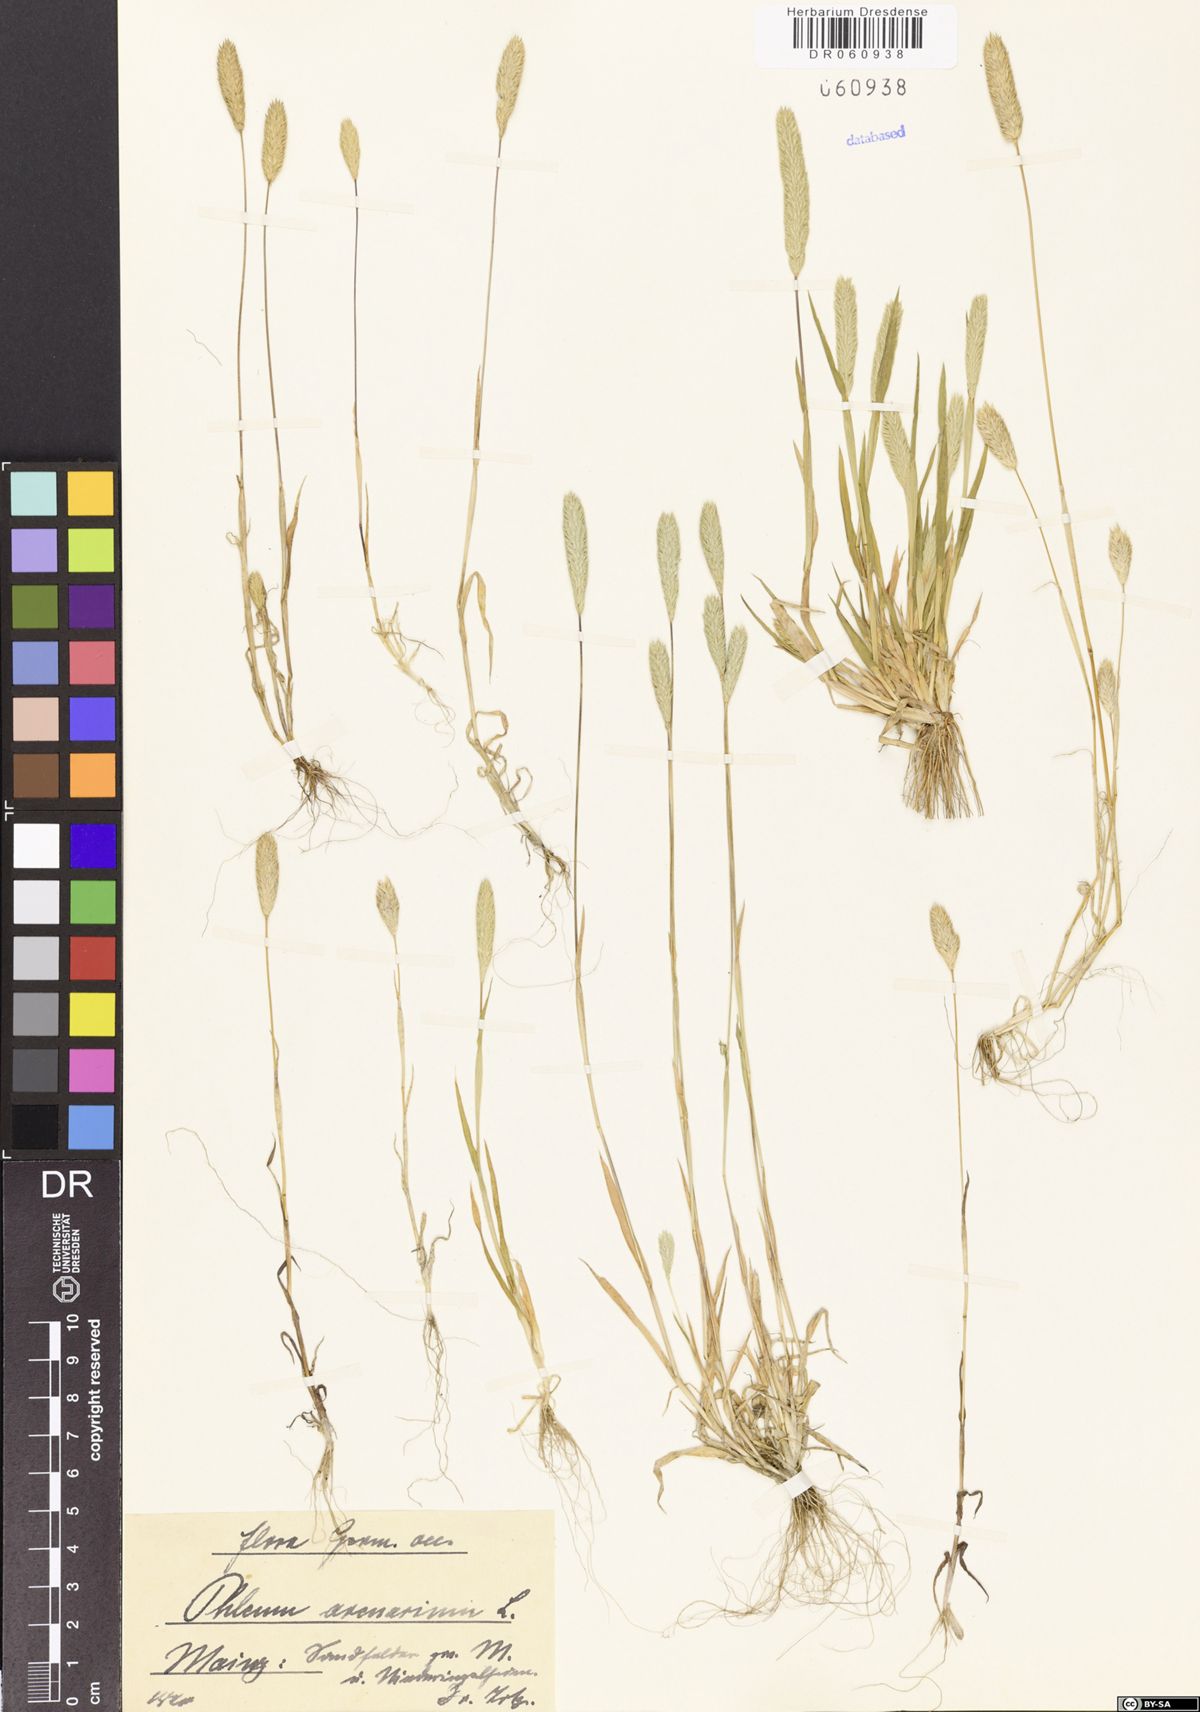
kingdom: Plantae
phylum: Tracheophyta
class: Liliopsida
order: Poales
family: Poaceae
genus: Phleum
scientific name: Phleum arenarium
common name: Sand cat's-tail
